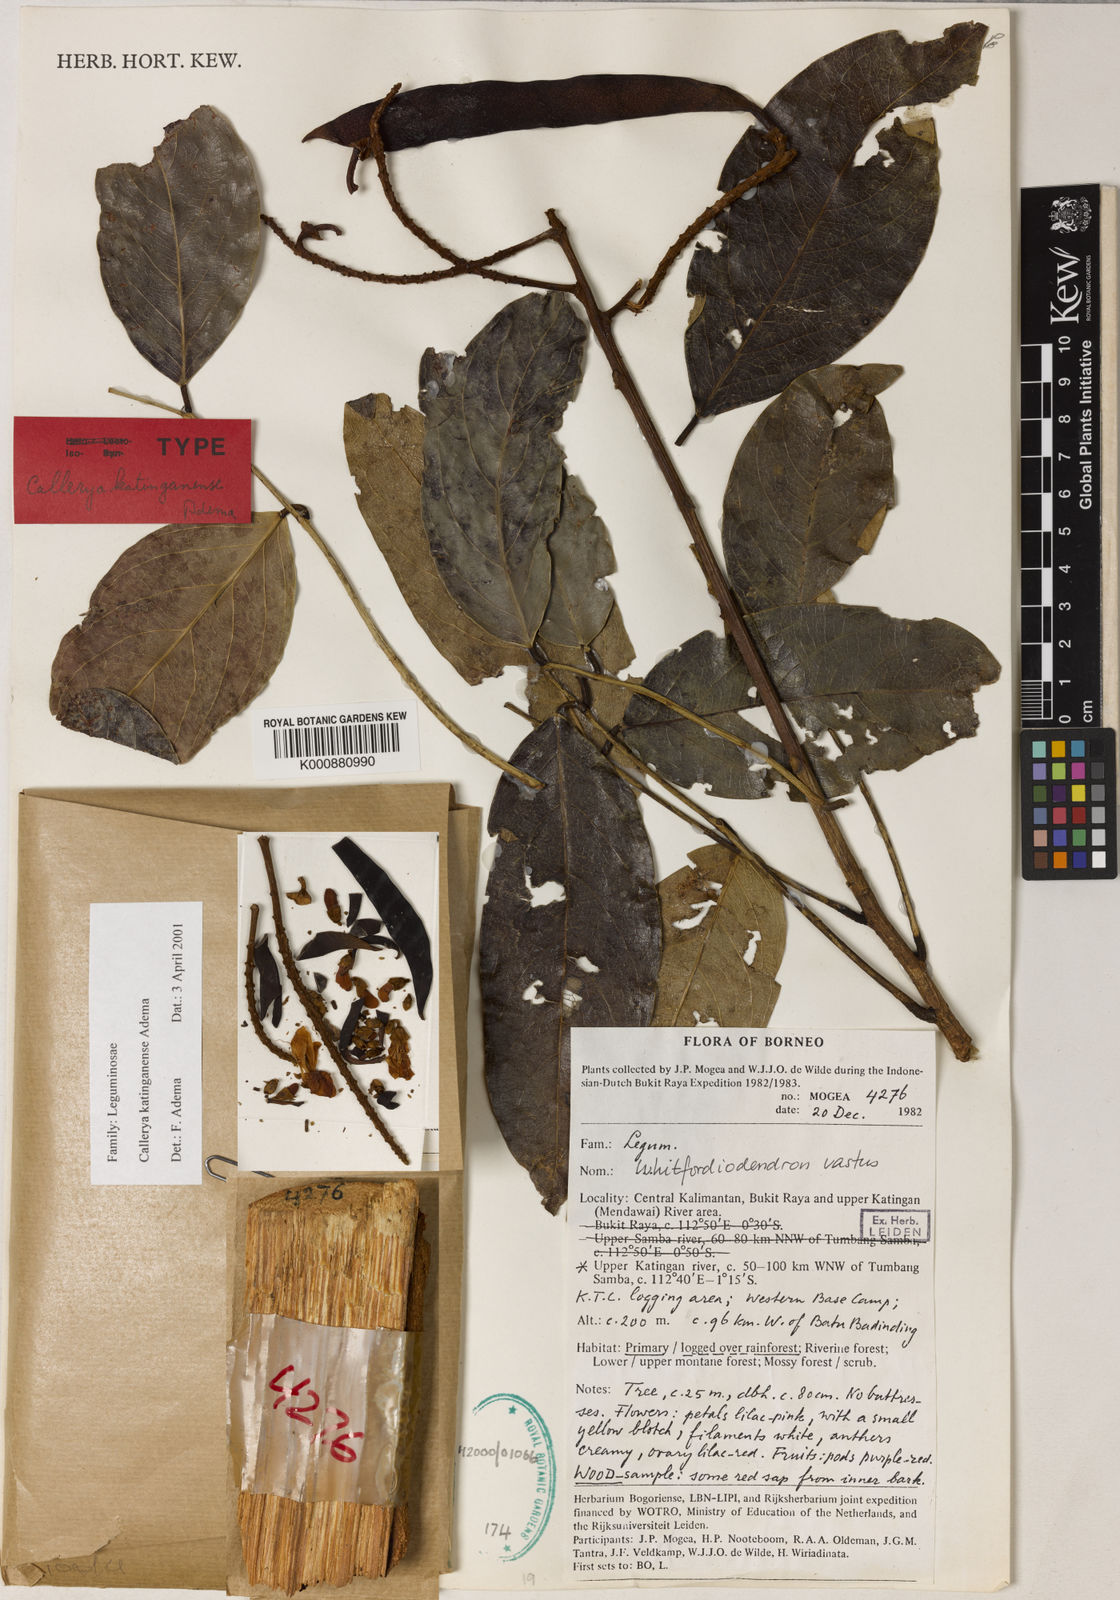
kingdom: Plantae
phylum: Tracheophyta
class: Magnoliopsida
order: Fabales
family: Fabaceae
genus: Callerya
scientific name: Callerya
